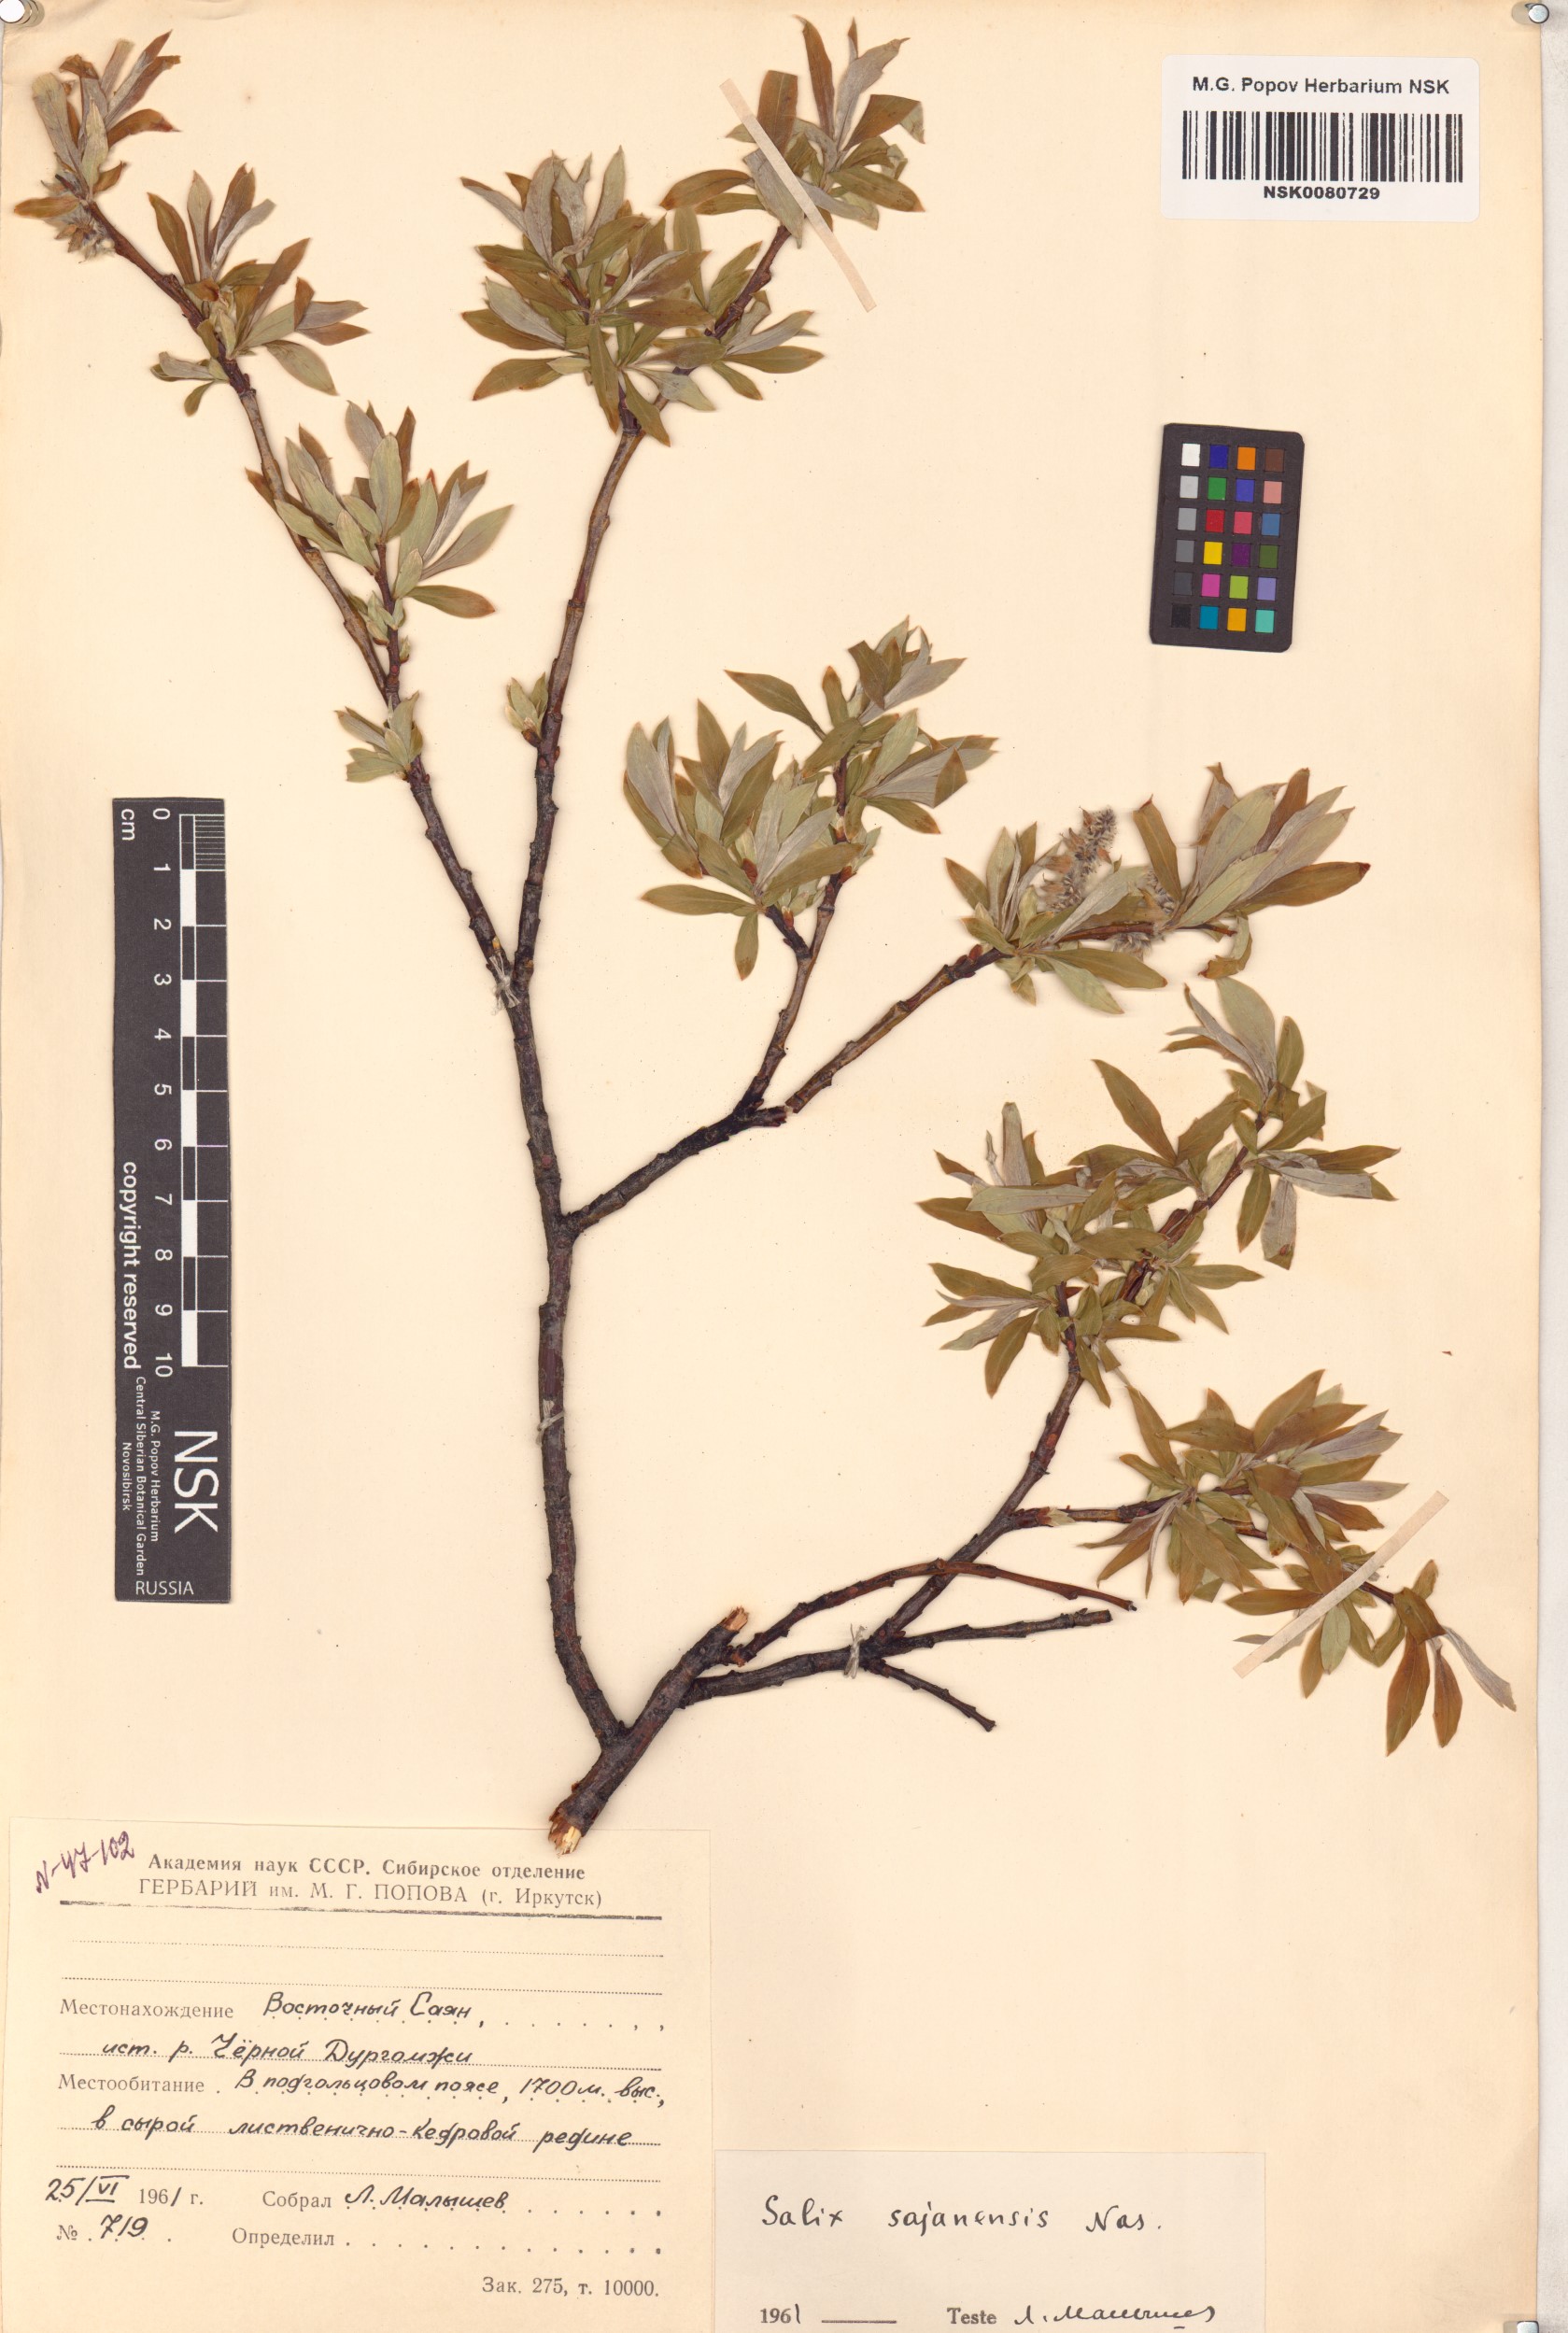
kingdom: Plantae
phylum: Tracheophyta
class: Magnoliopsida
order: Malpighiales
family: Salicaceae
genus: Salix
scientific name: Salix sajanensis
